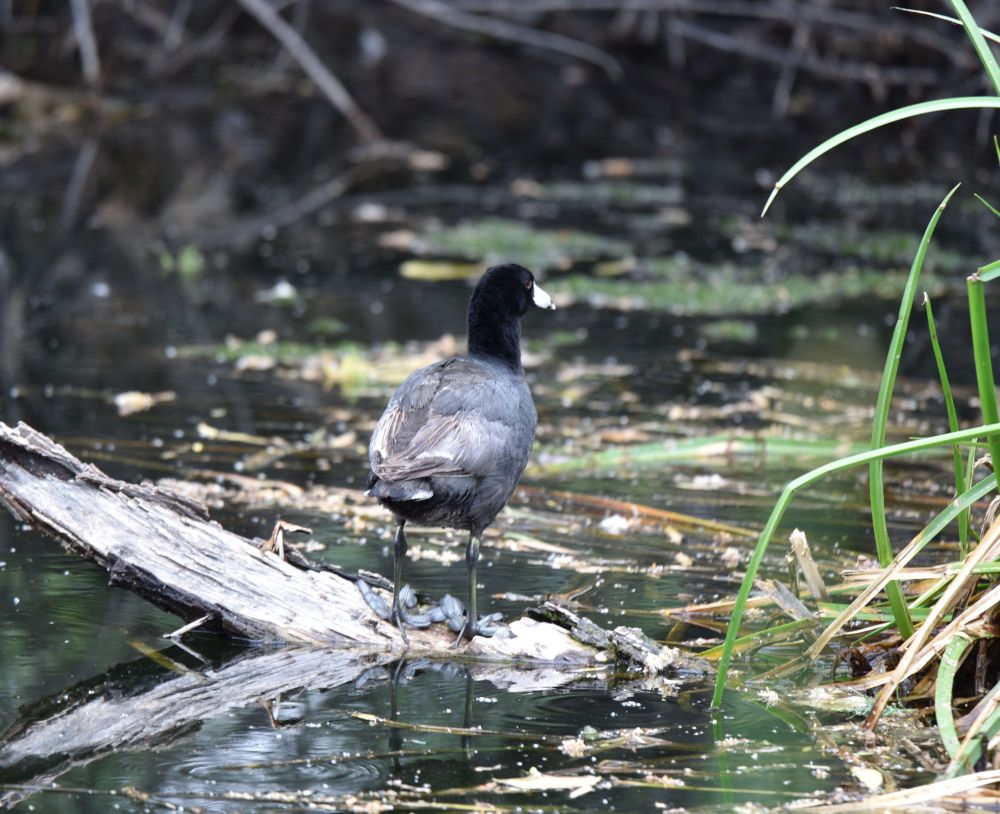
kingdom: Animalia
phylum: Chordata
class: Aves
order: Gruiformes
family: Rallidae
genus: Fulica
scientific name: Fulica americana
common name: American coot
